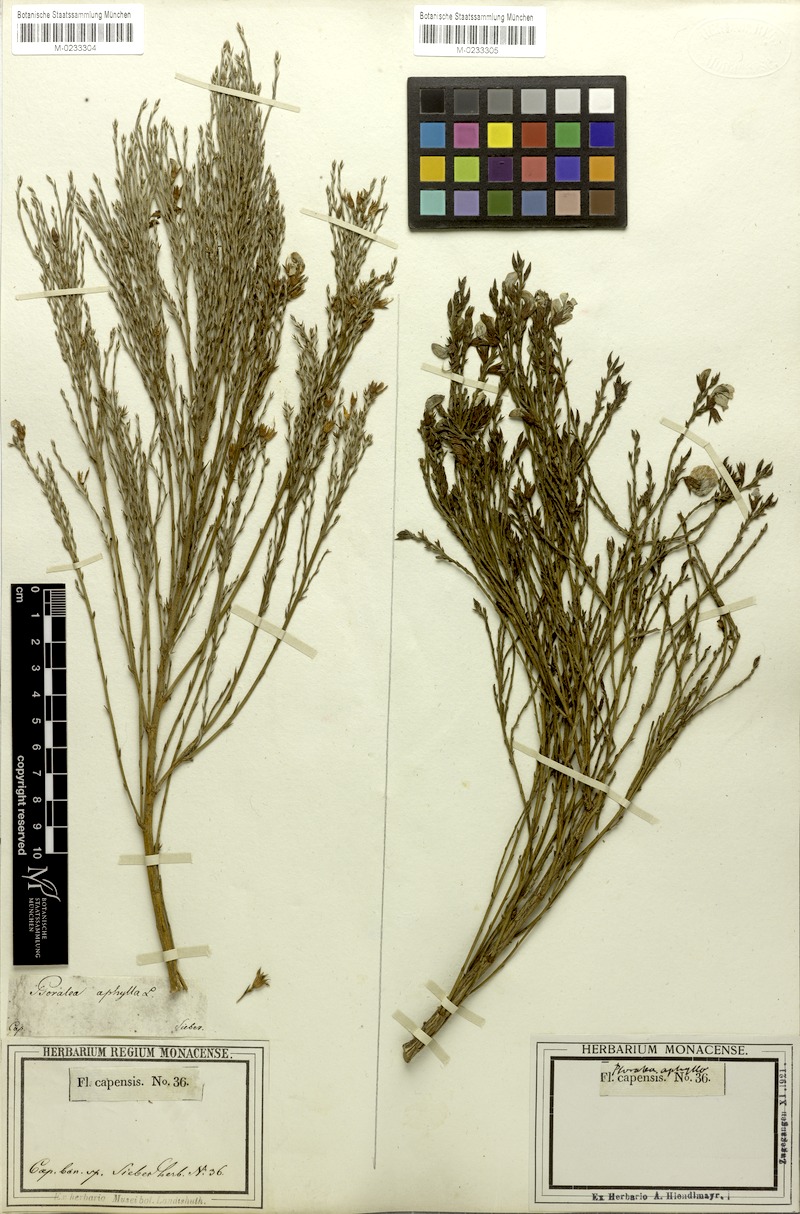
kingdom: Plantae
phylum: Tracheophyta
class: Magnoliopsida
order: Fabales
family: Fabaceae
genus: Psoralea
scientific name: Psoralea aphylla
